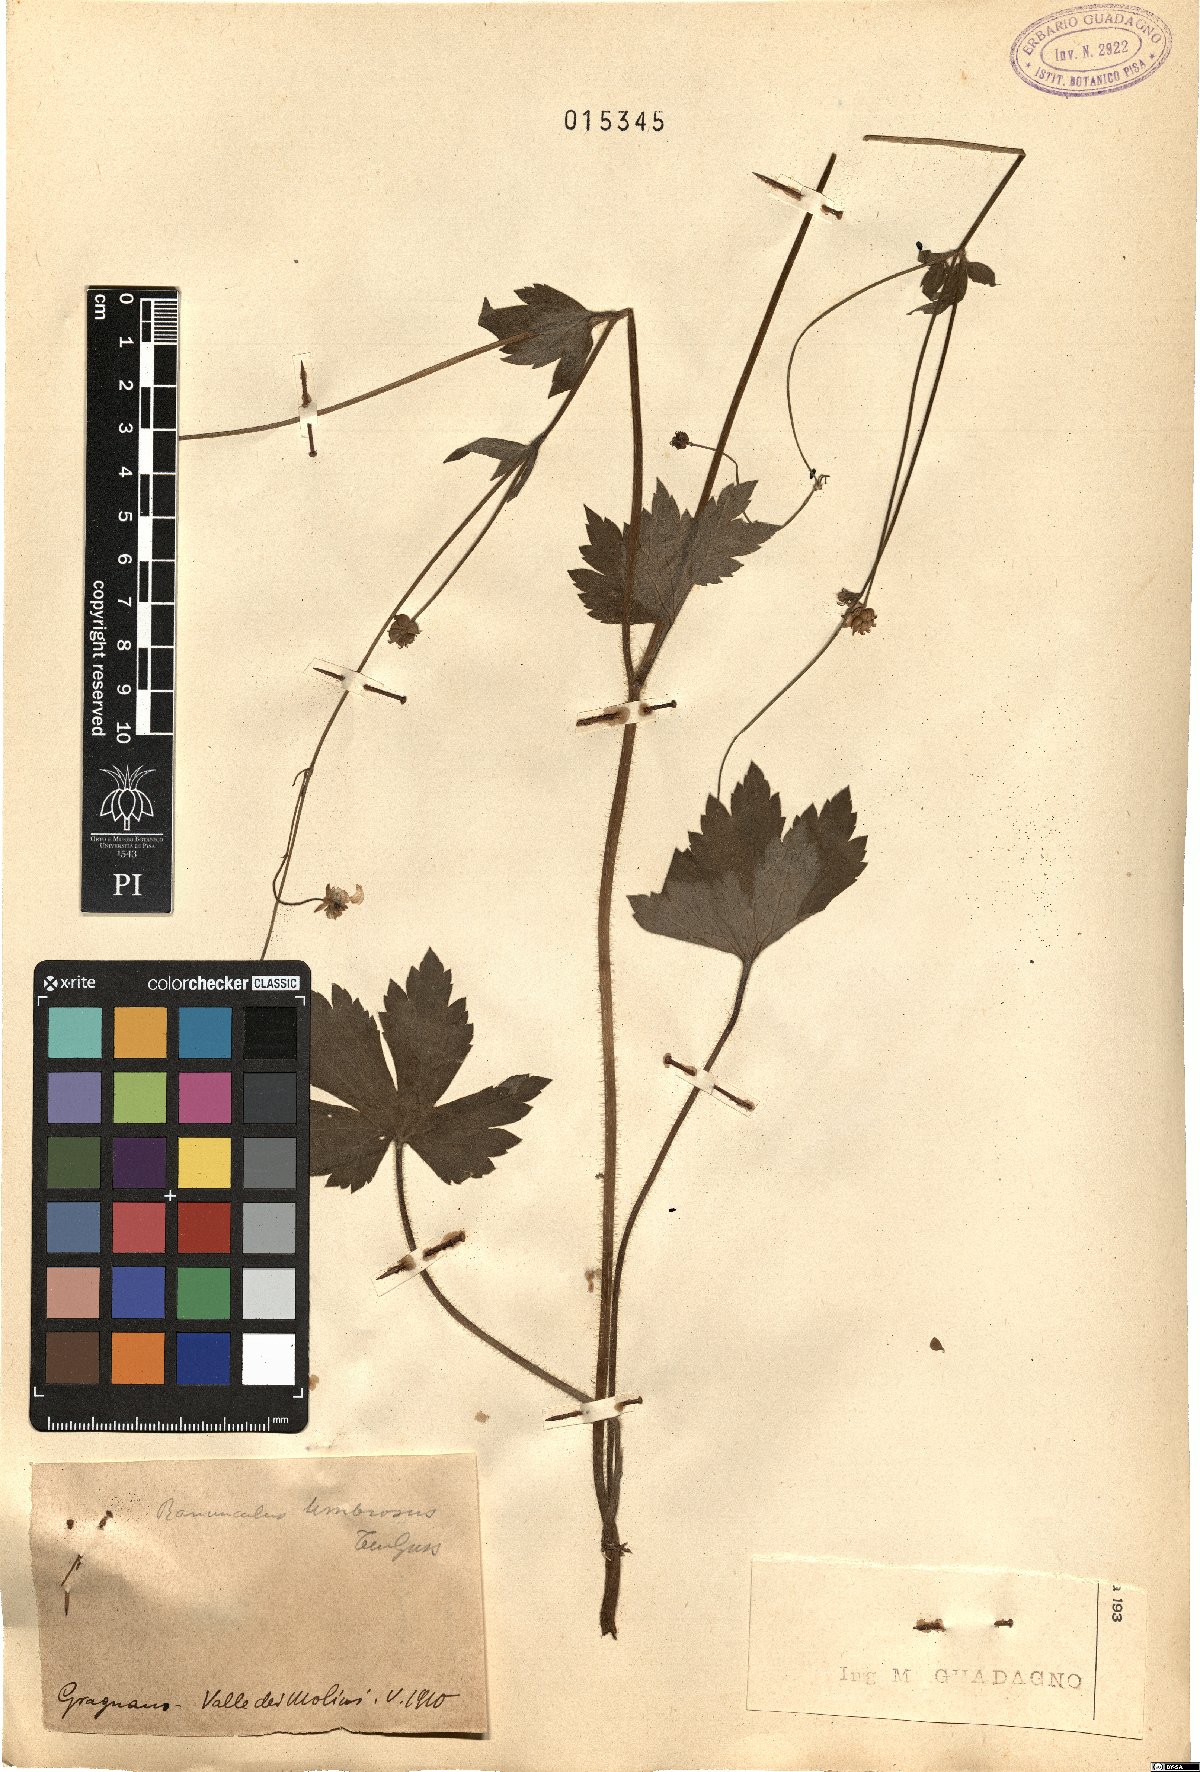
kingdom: Plantae
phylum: Tracheophyta
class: Magnoliopsida
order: Ranunculales
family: Ranunculaceae
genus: Ranunculus
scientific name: Ranunculus lanuginosus
